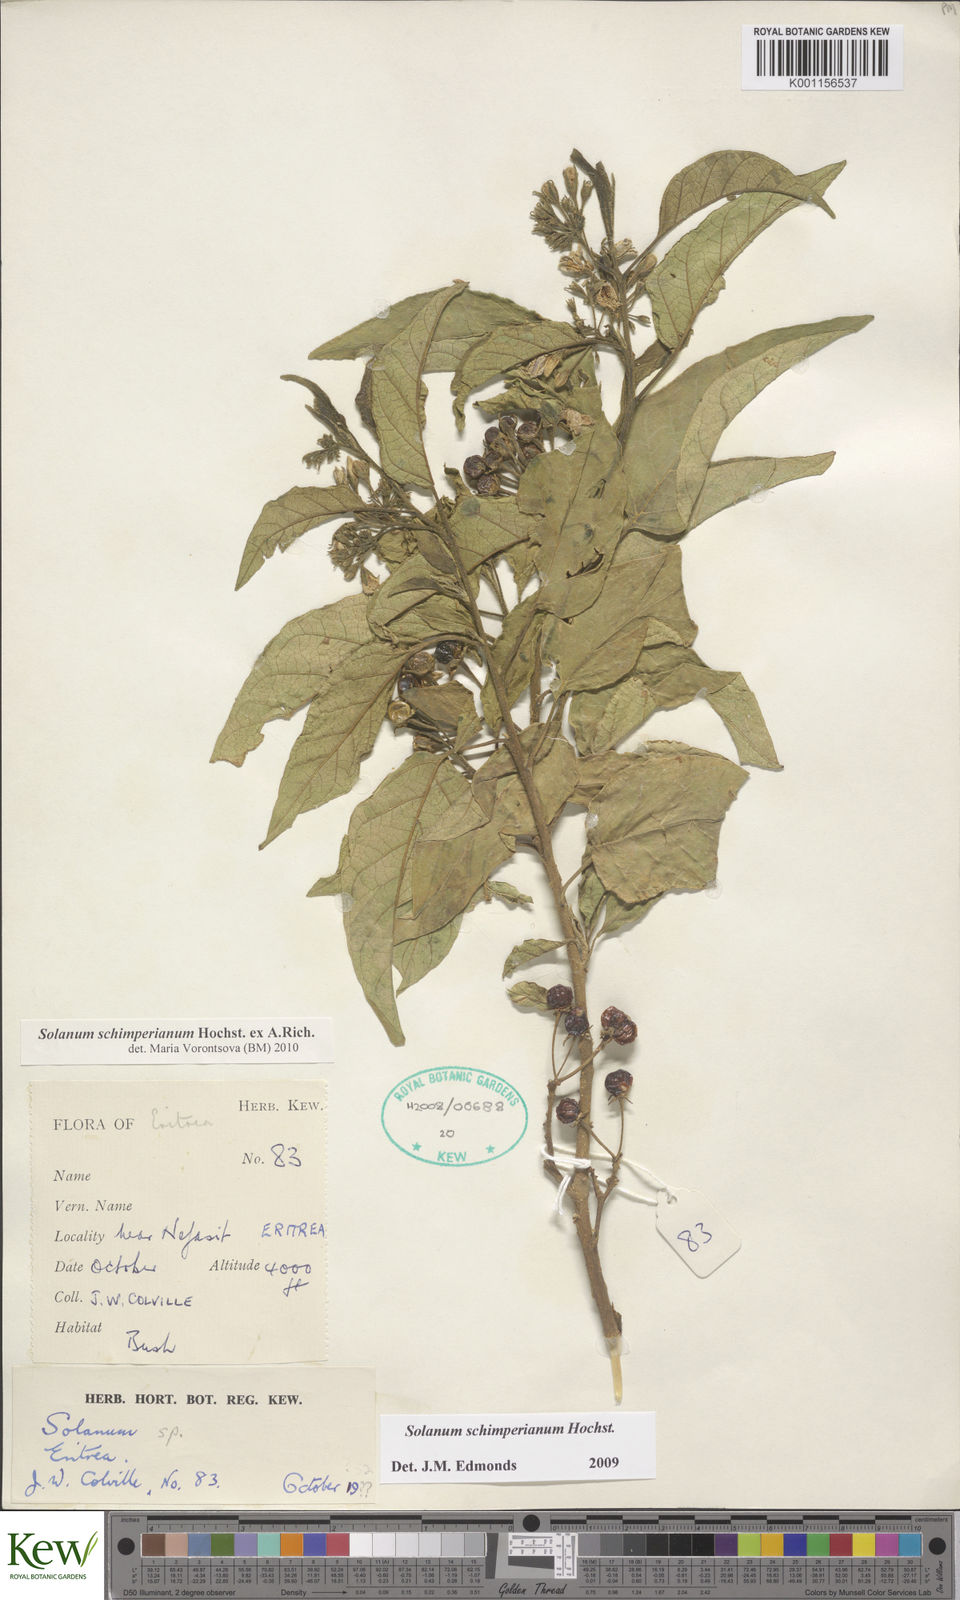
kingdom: Plantae
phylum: Tracheophyta
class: Magnoliopsida
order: Solanales
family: Solanaceae
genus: Solanum
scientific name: Solanum
